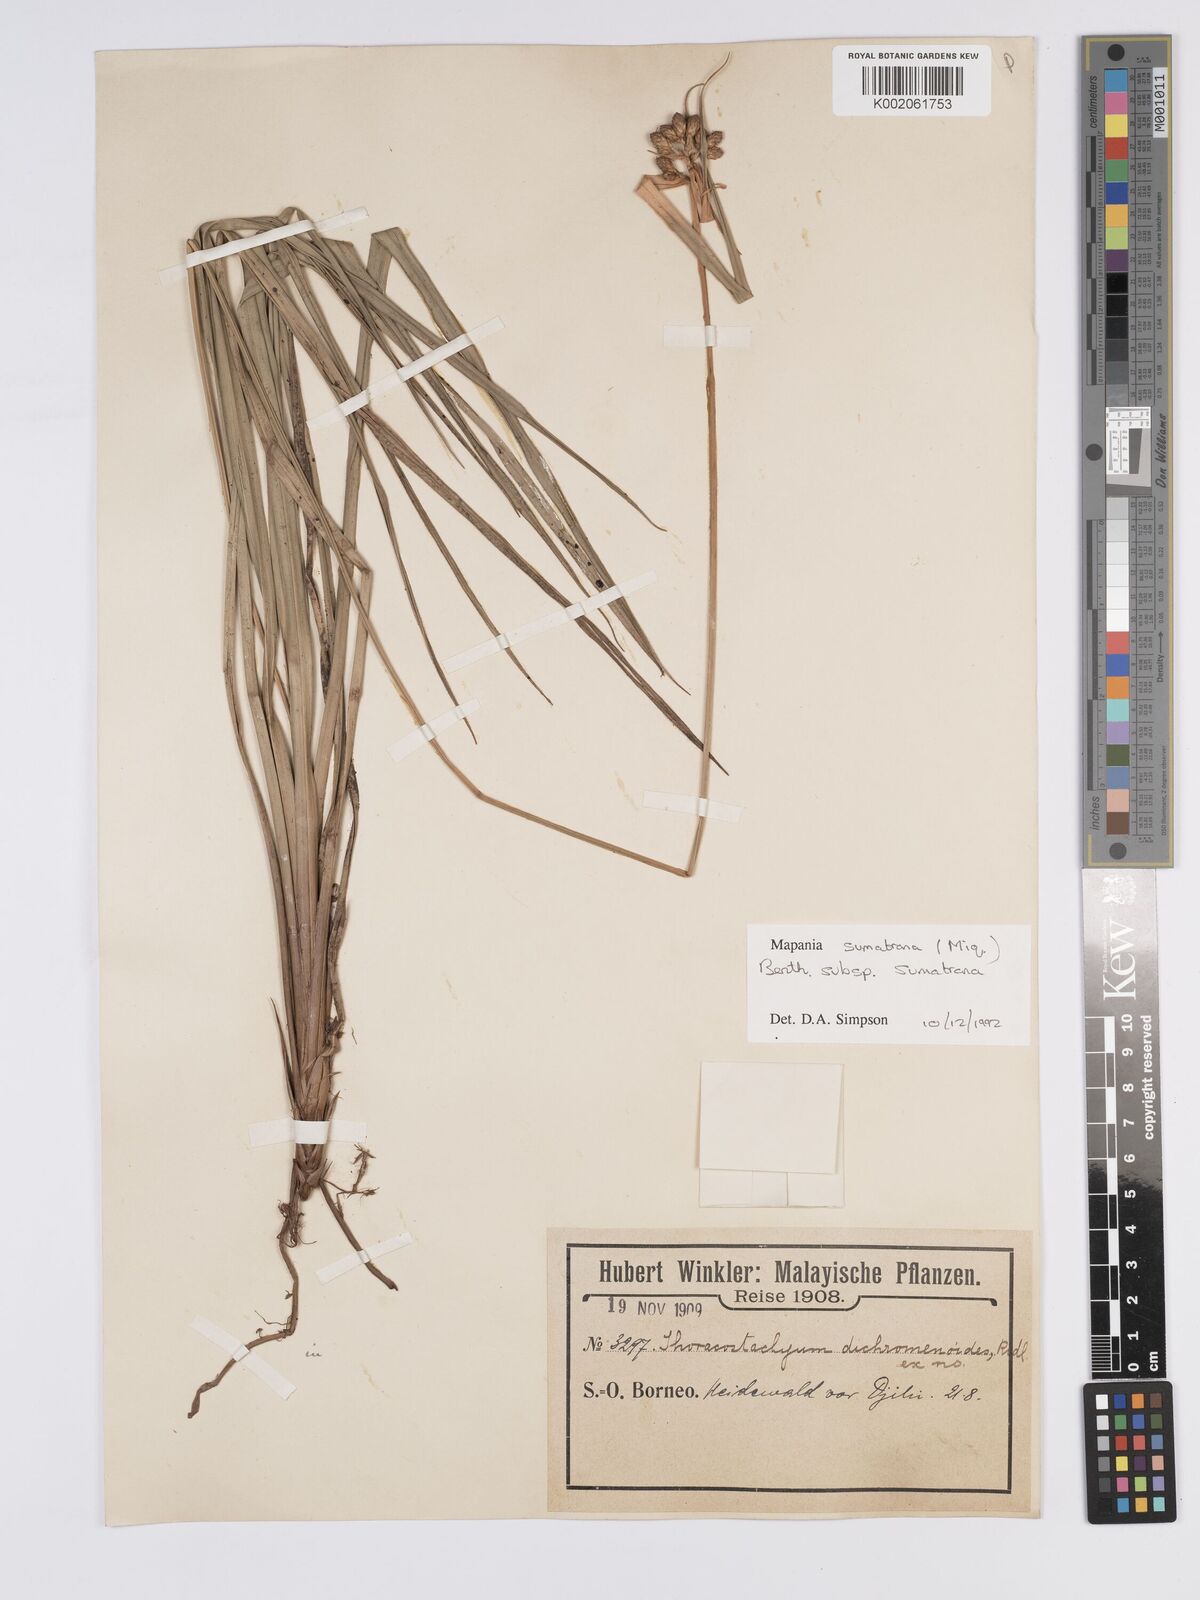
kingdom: Plantae
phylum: Tracheophyta
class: Liliopsida
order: Poales
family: Cyperaceae
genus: Mapania
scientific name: Mapania sumatrana
